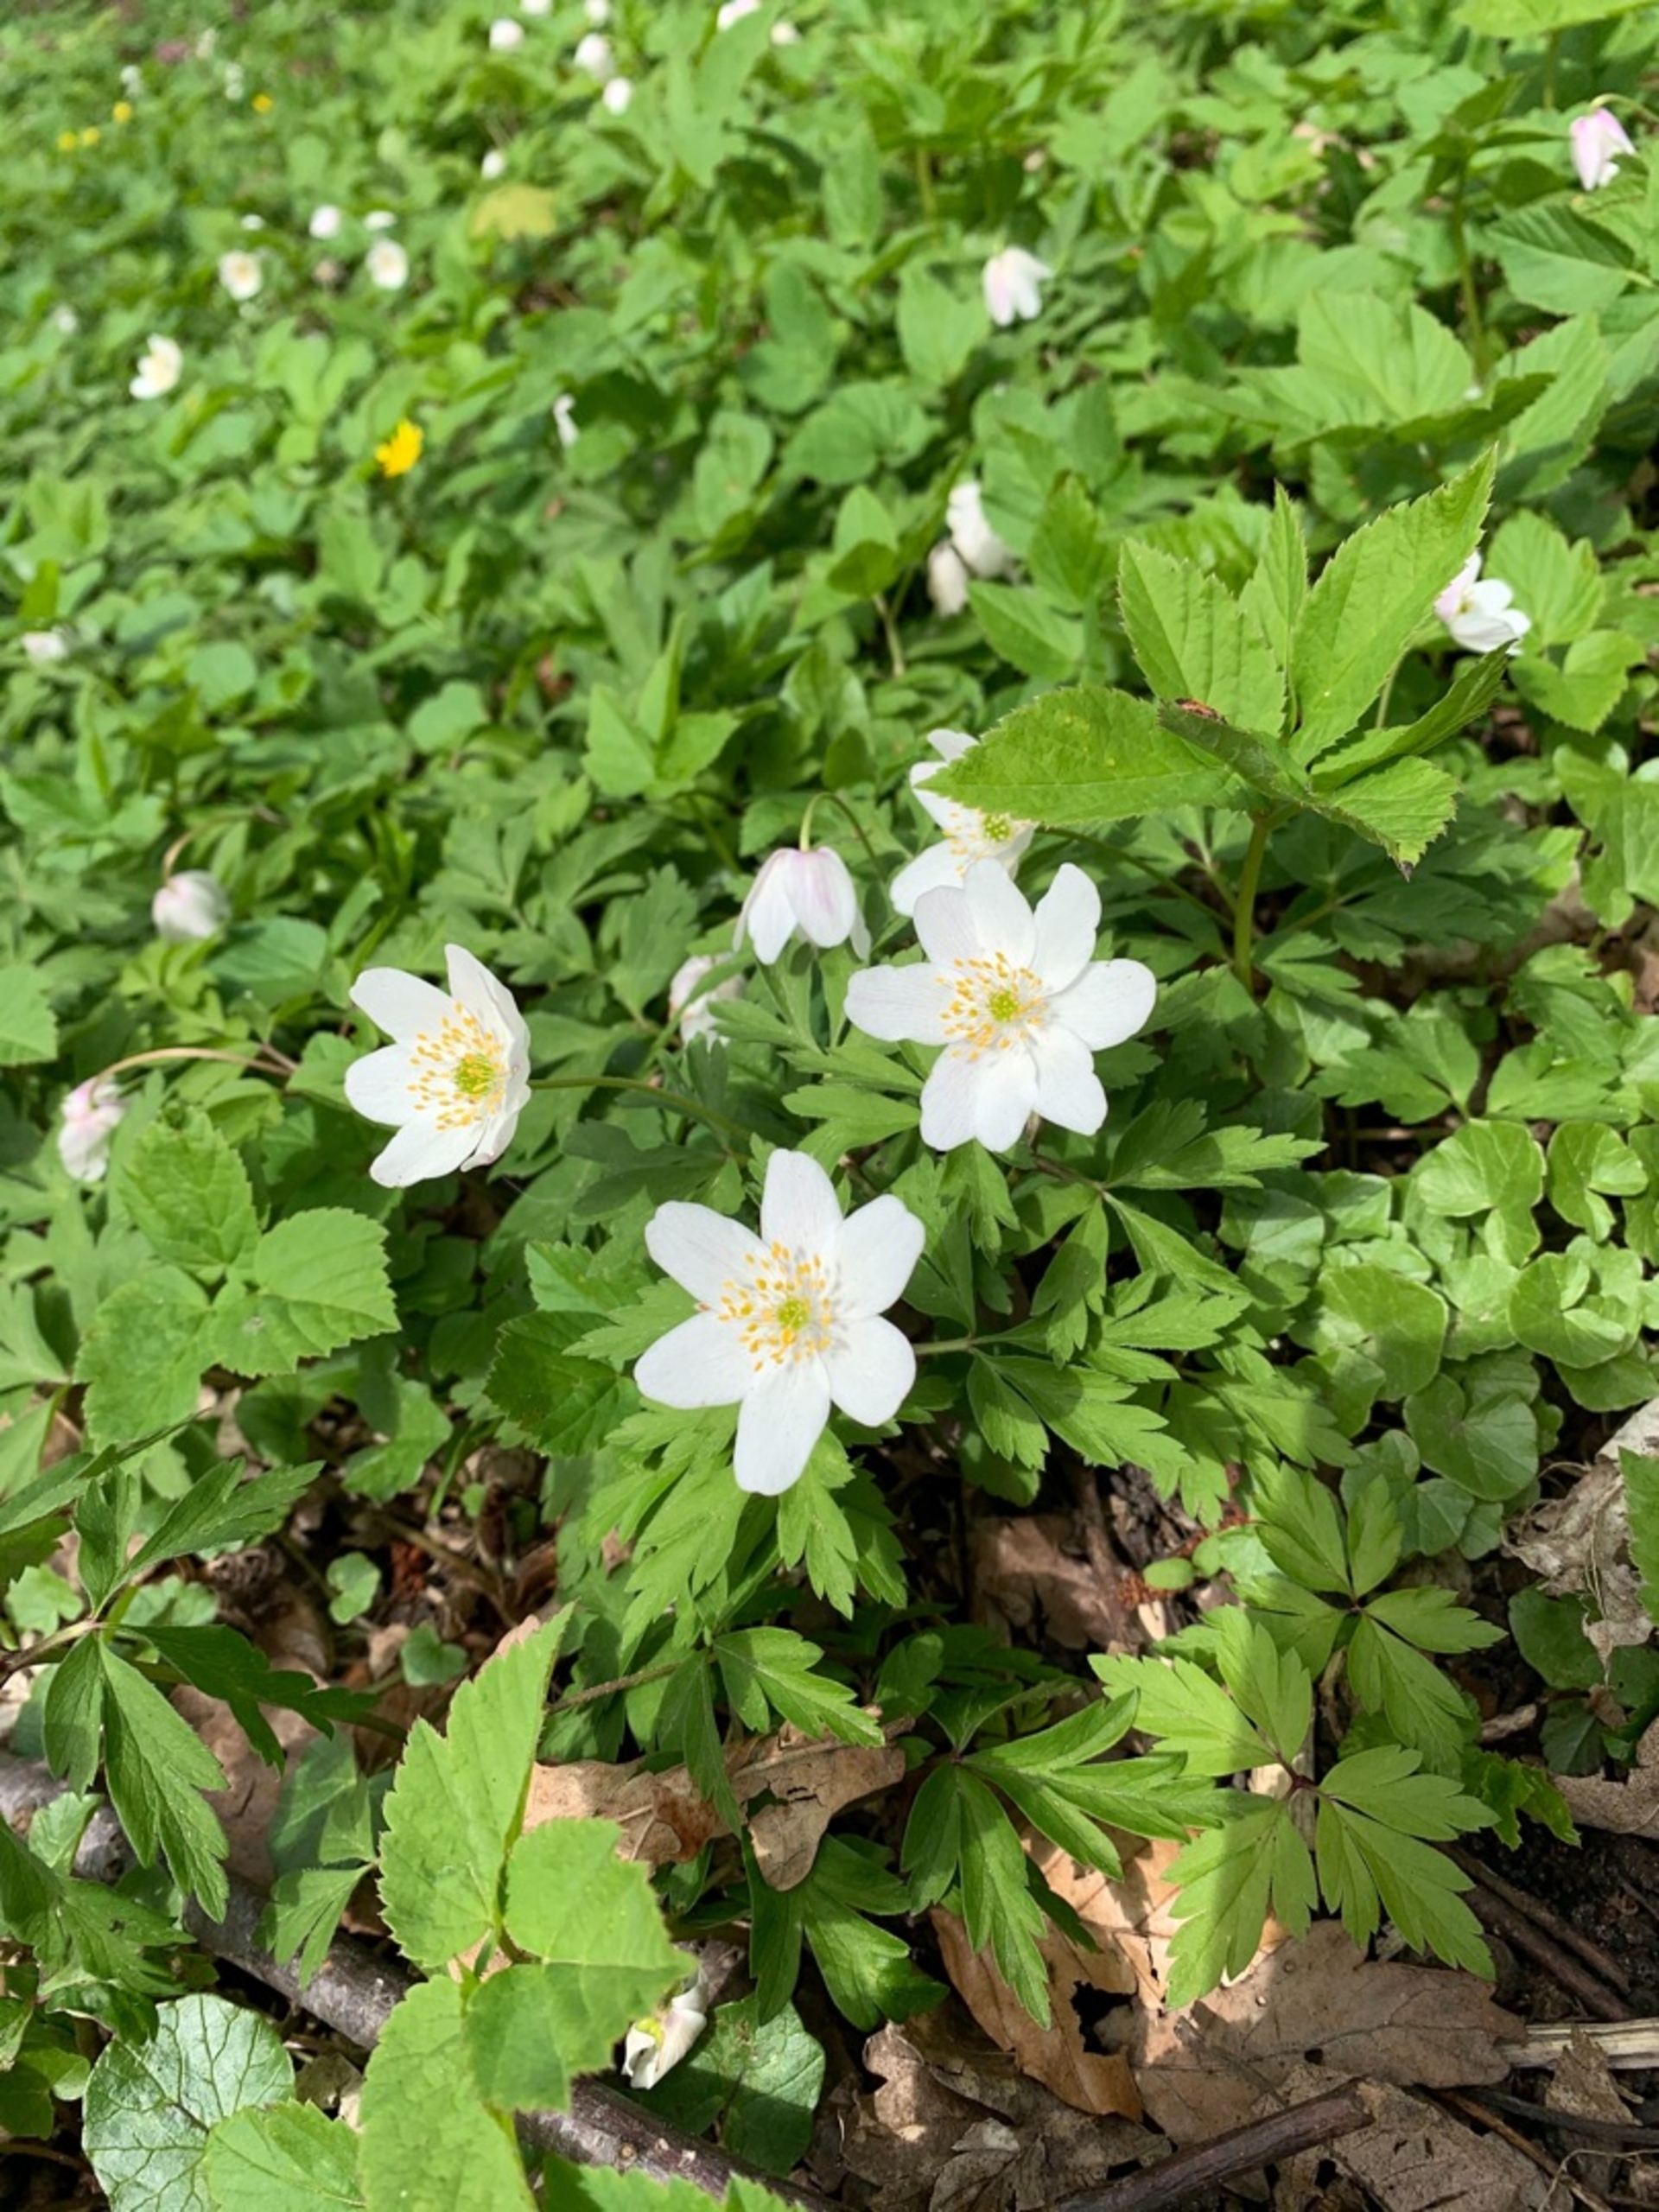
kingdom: Plantae
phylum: Tracheophyta
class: Magnoliopsida
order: Ranunculales
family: Ranunculaceae
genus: Anemone
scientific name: Anemone nemorosa
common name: Hvid anemone
